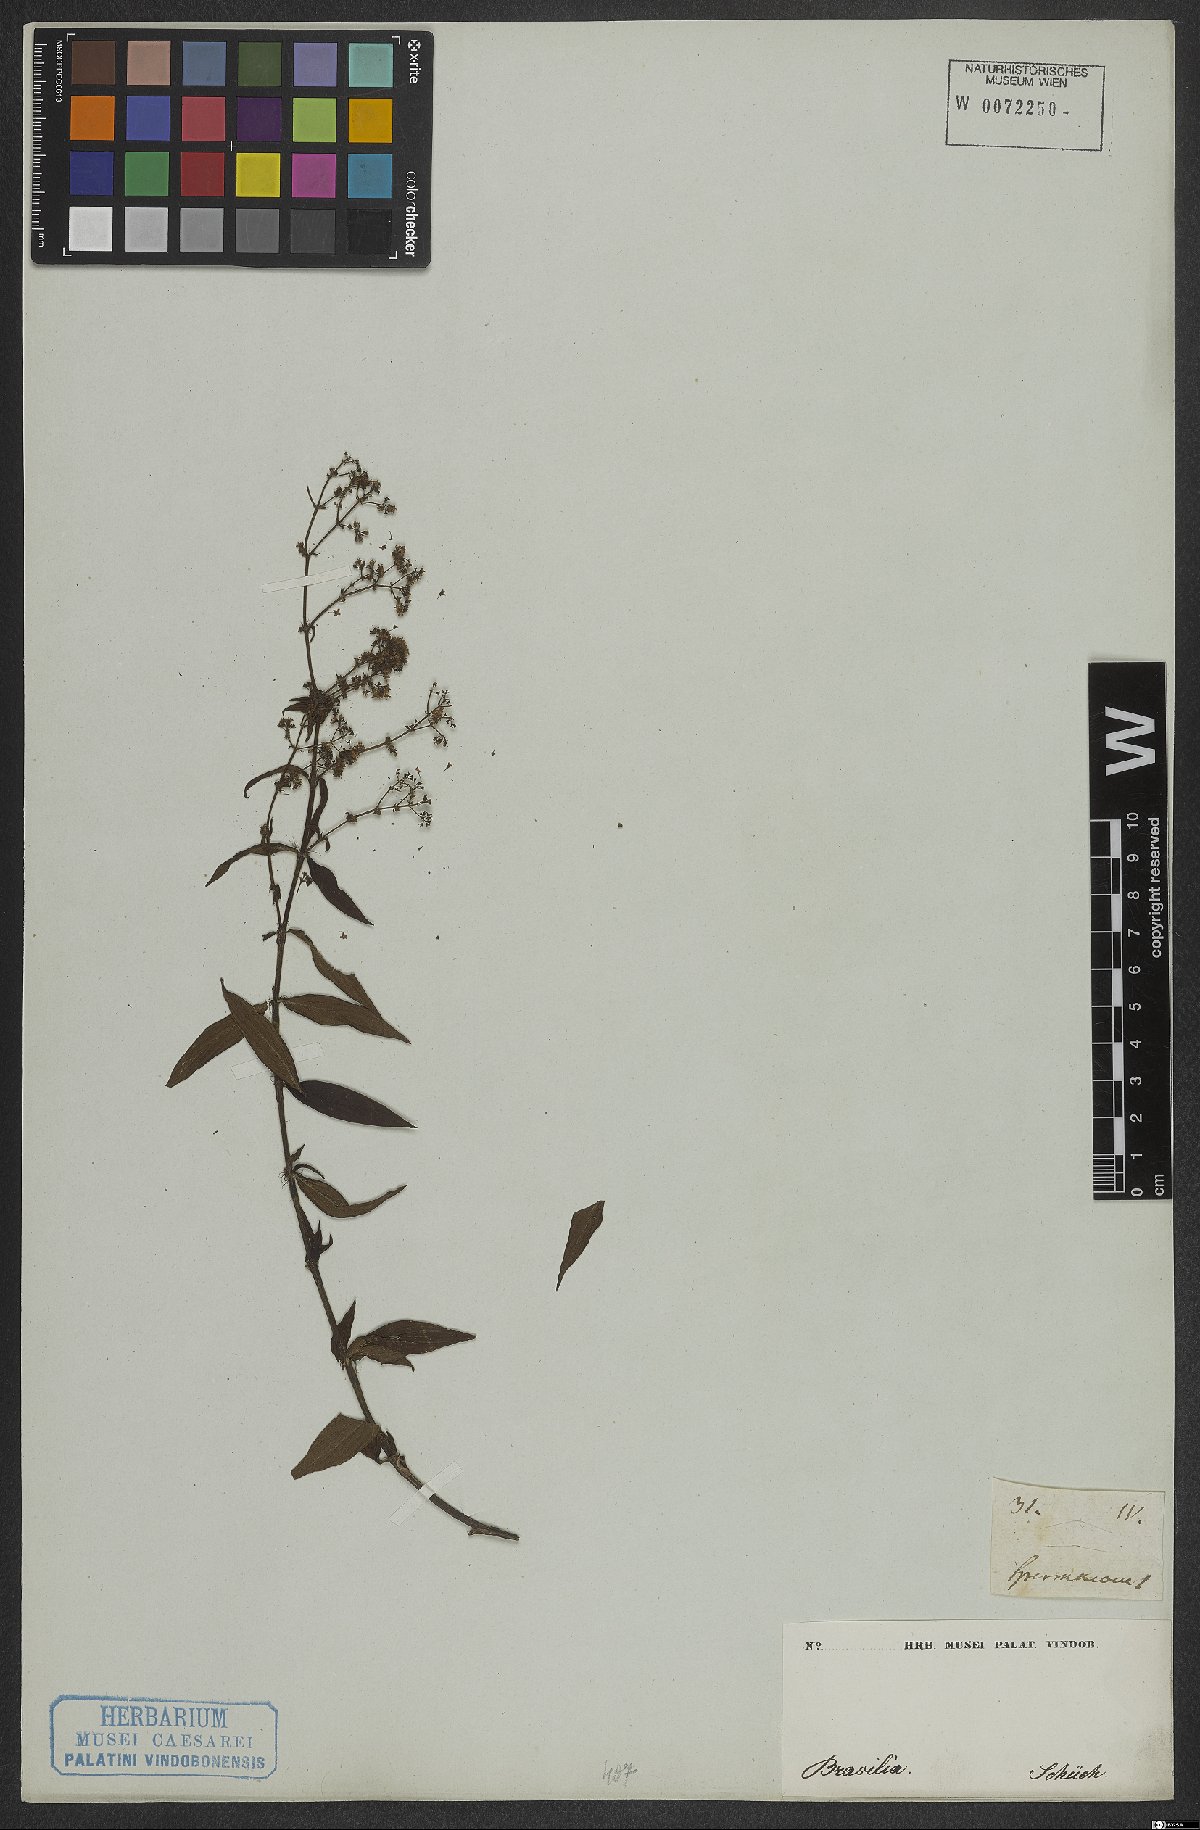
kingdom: Plantae
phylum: Tracheophyta
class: Magnoliopsida
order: Gentianales
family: Rubiaceae
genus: Emmeorhiza
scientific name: Emmeorhiza
